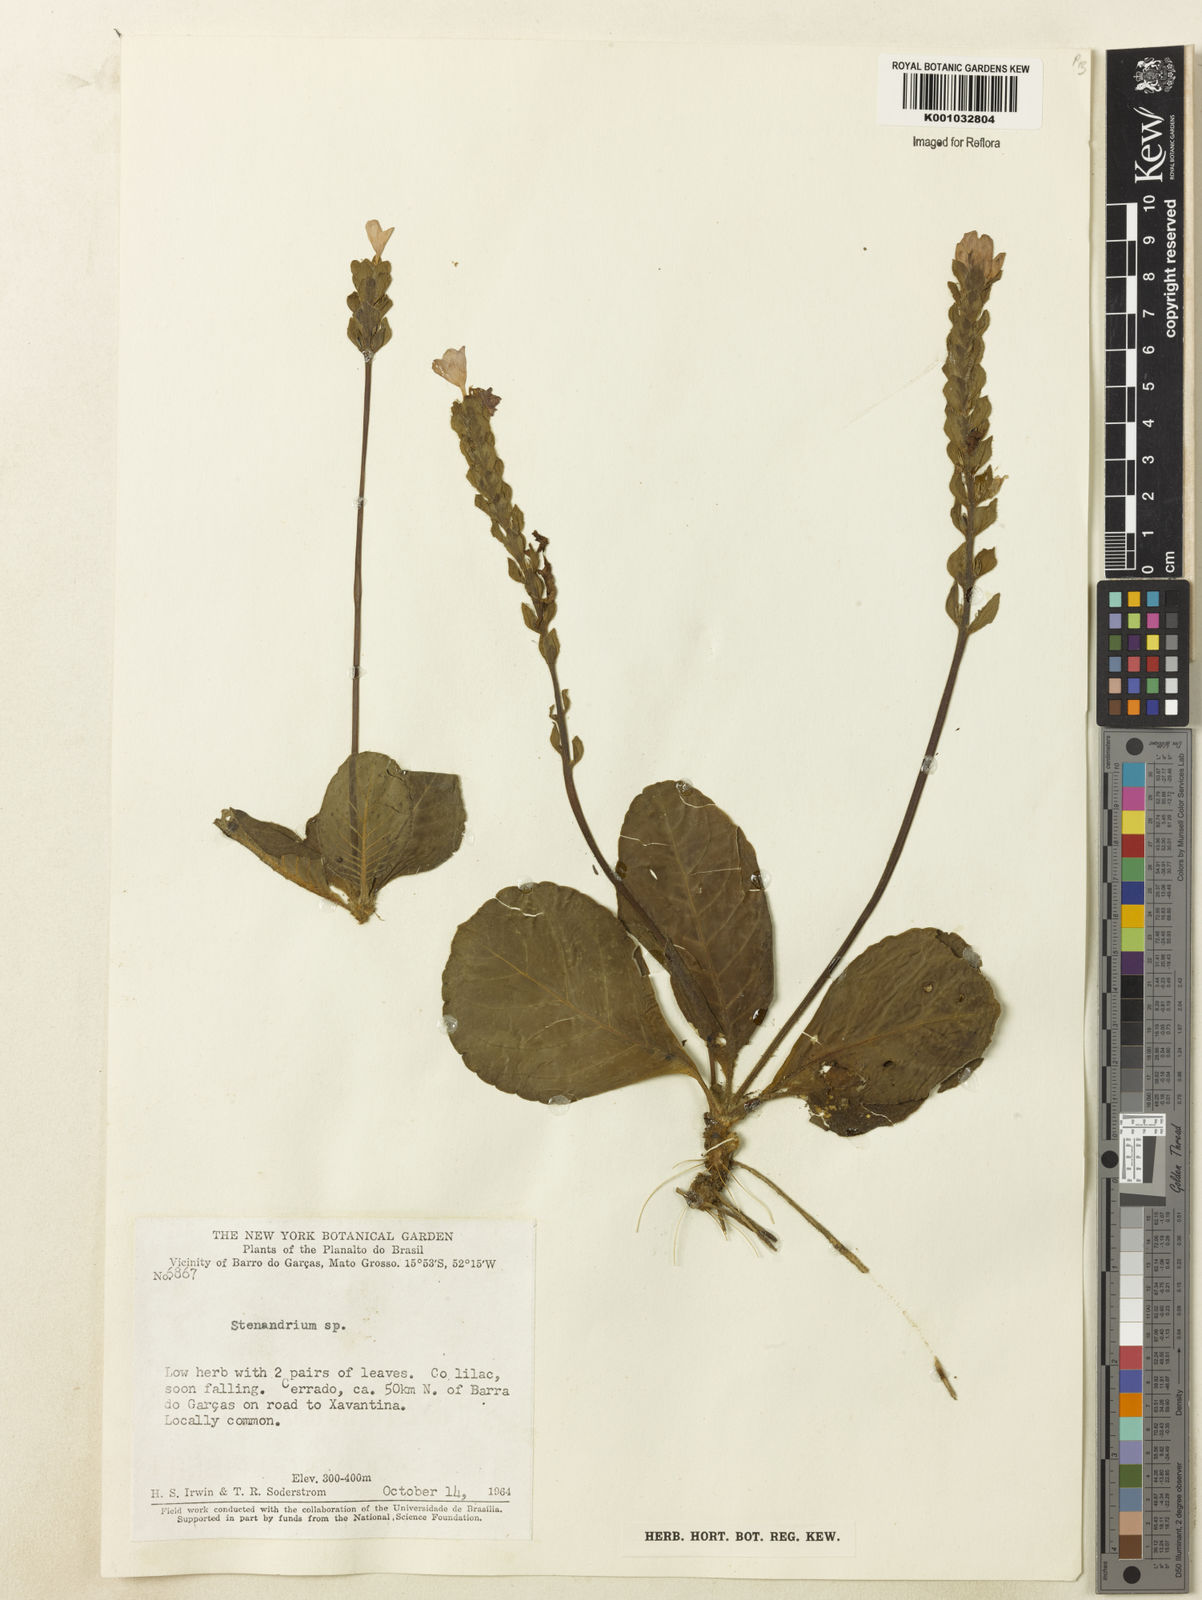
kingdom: Plantae
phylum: Tracheophyta
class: Magnoliopsida
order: Lamiales
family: Acanthaceae
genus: Stenandrium
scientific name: Stenandrium
